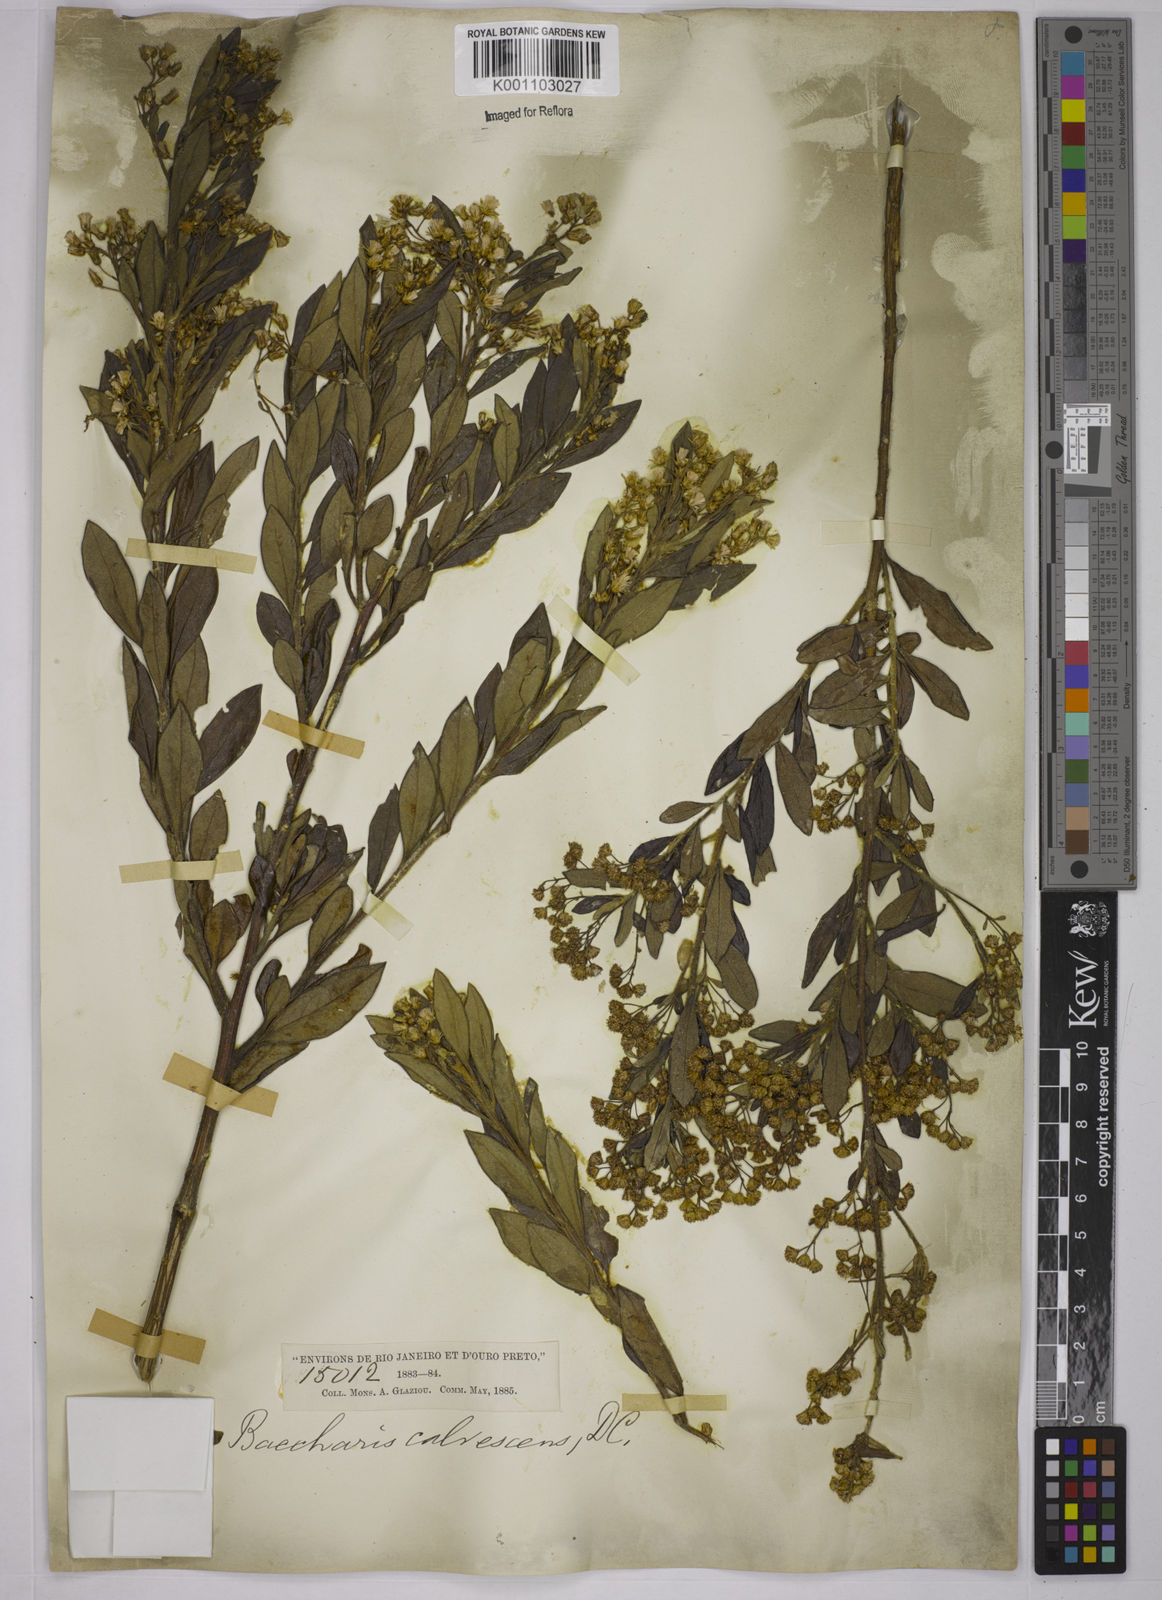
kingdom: Plantae
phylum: Tracheophyta
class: Magnoliopsida
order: Asterales
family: Asteraceae
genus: Baccharis
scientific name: Baccharis calvescens
